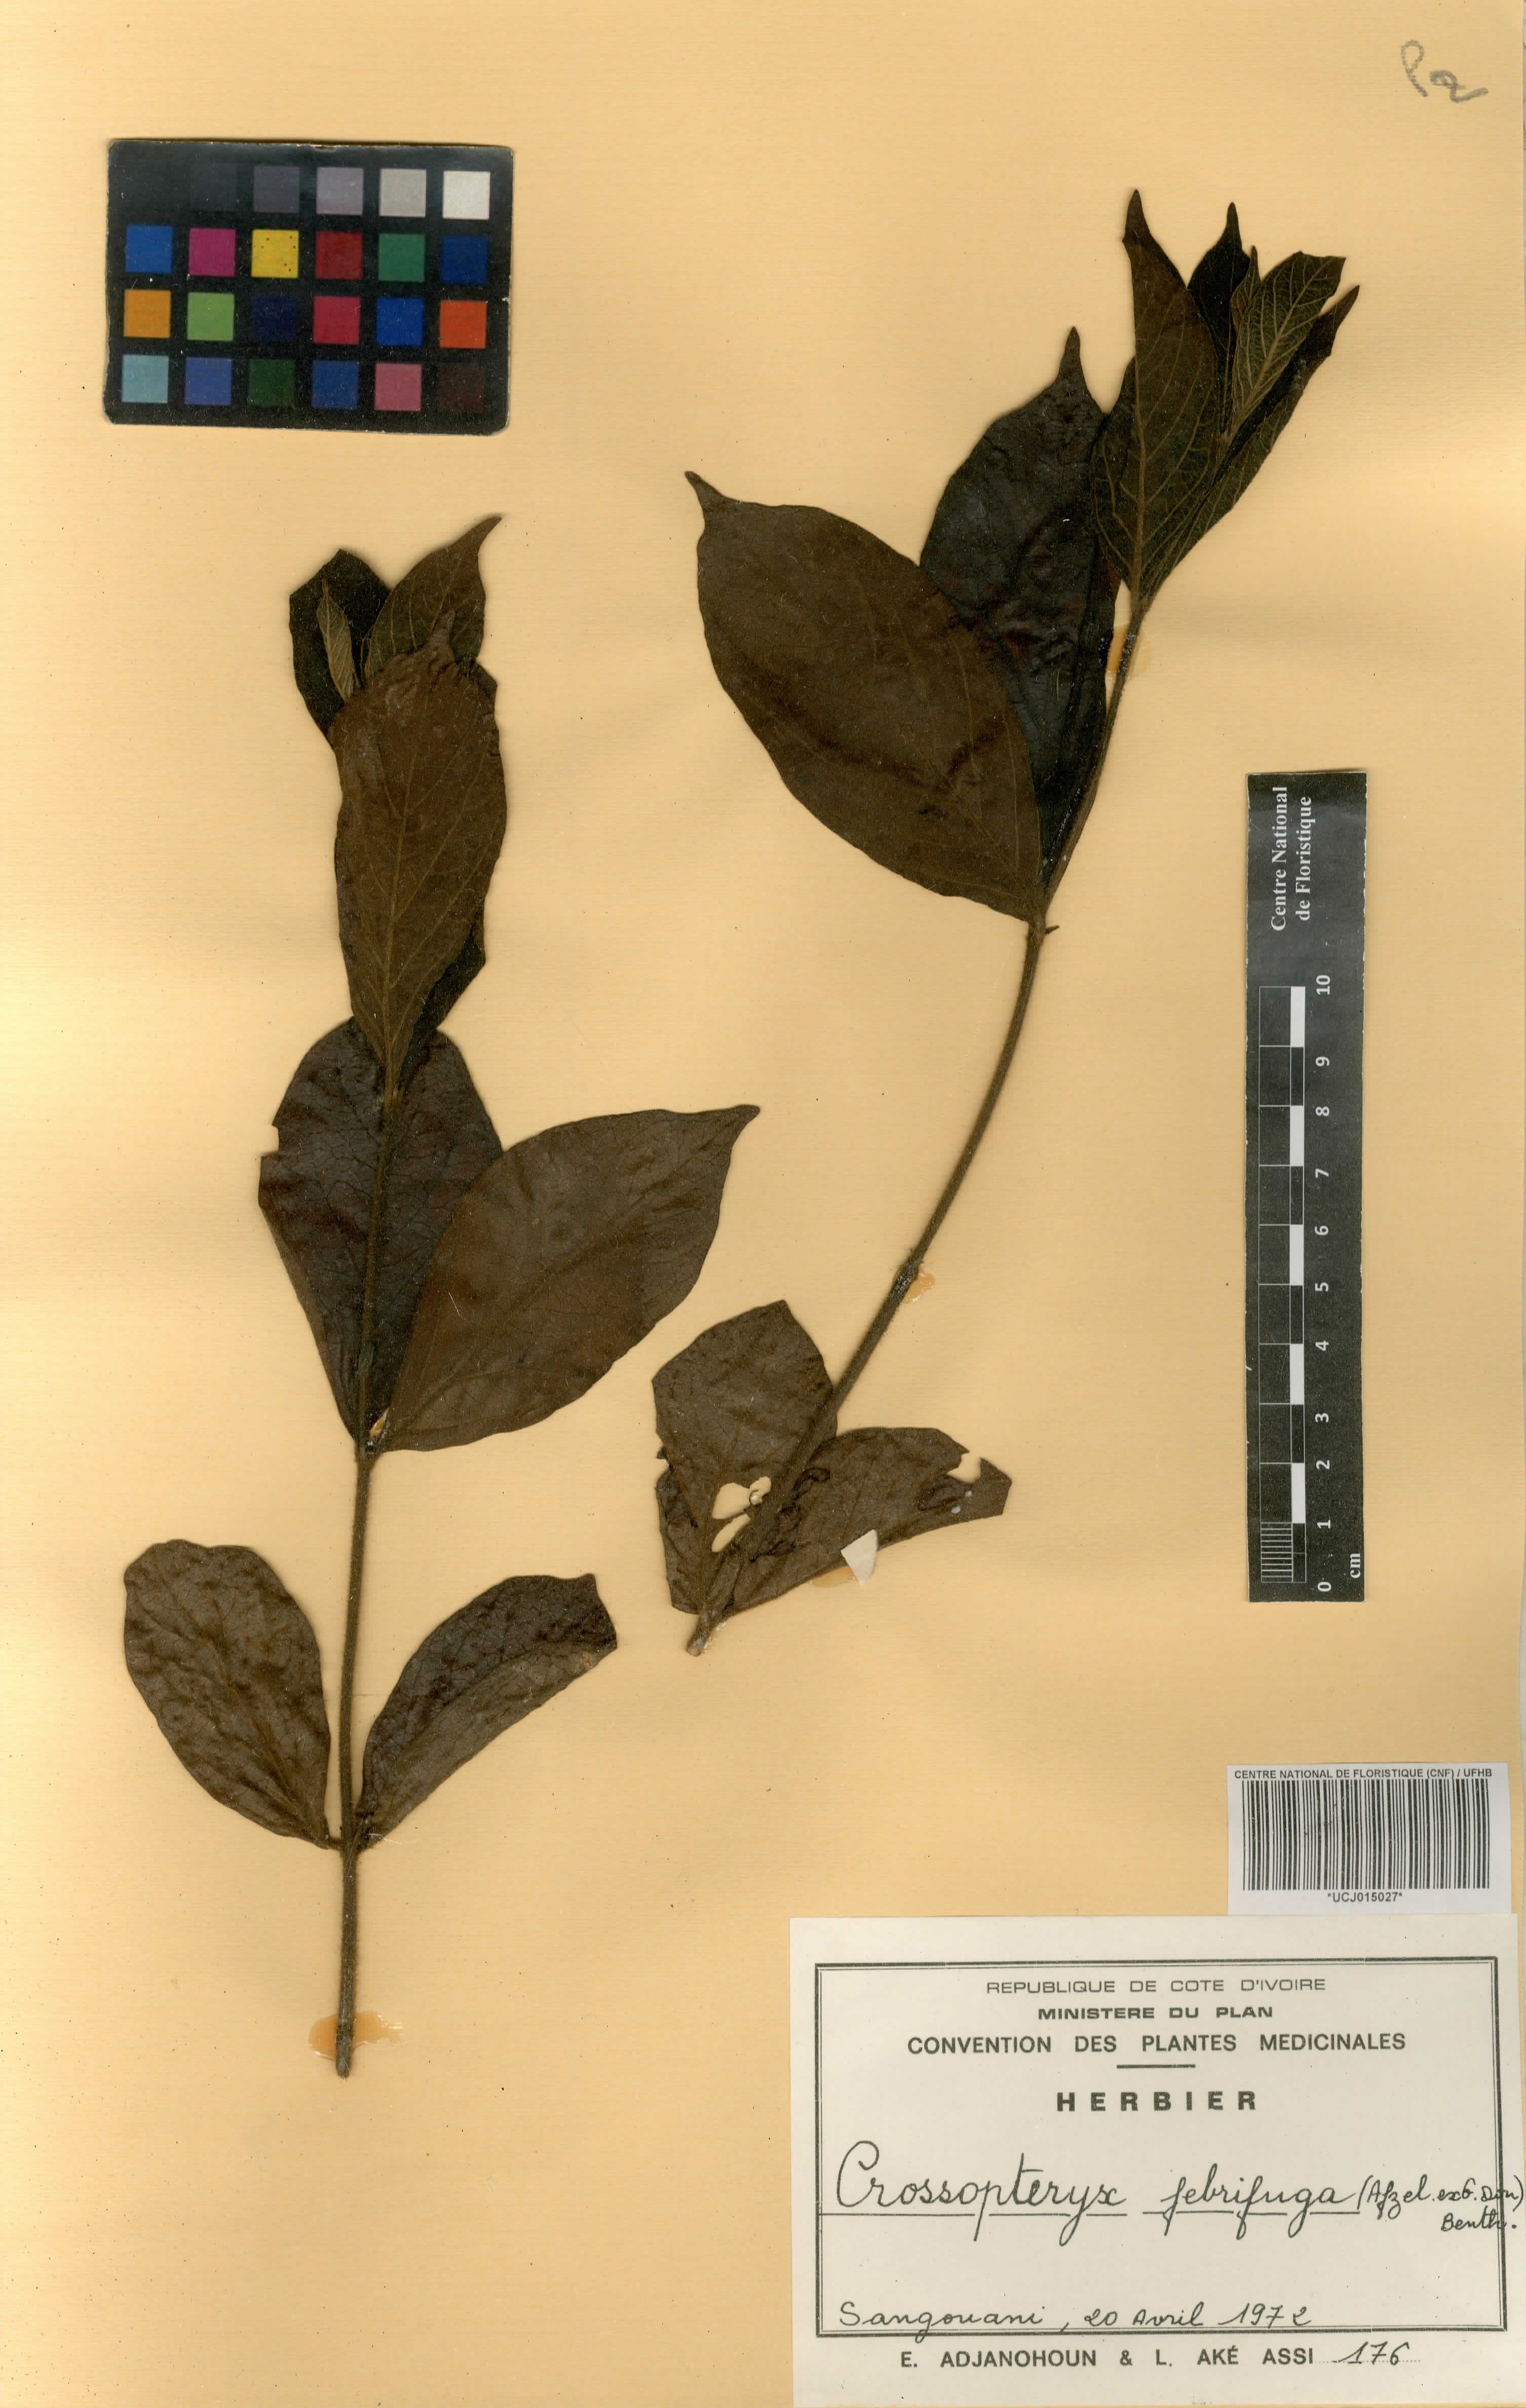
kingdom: Plantae
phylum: Tracheophyta
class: Magnoliopsida
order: Gentianales
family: Rubiaceae
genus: Crossopteryx
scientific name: Crossopteryx febrifuga
